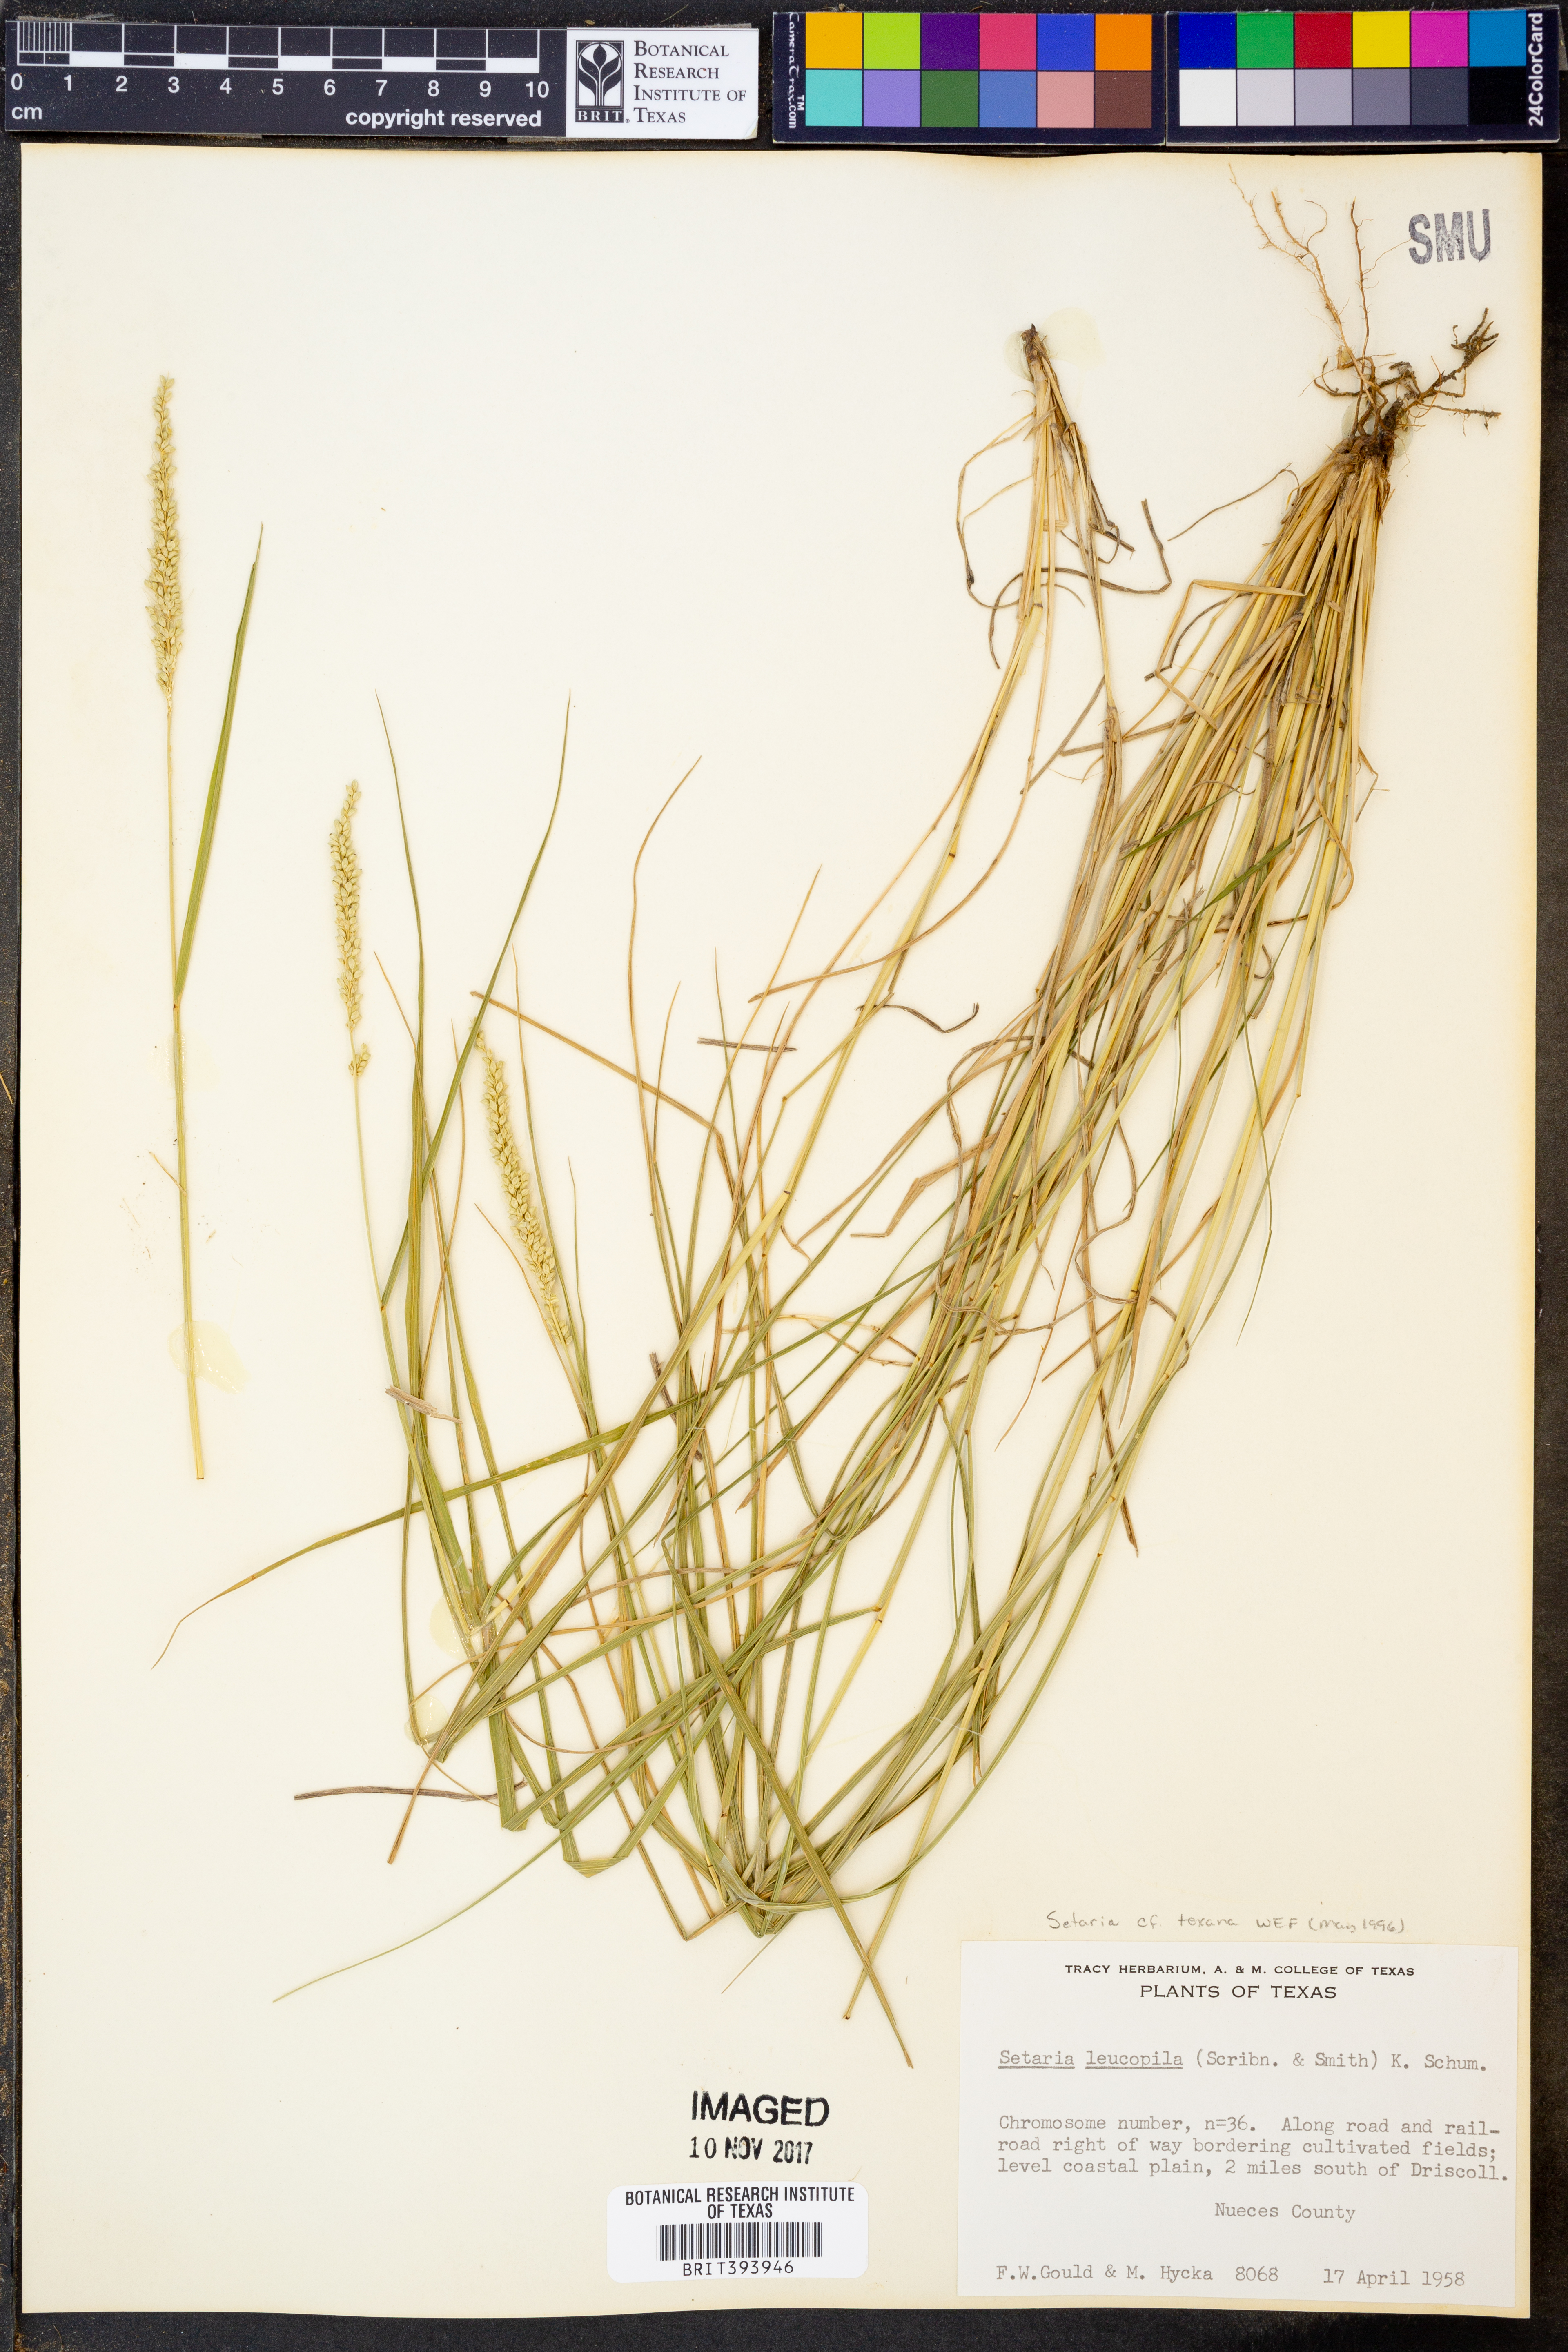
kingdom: Plantae
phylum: Tracheophyta
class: Liliopsida
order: Poales
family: Poaceae
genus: Setaria
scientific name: Setaria texana
